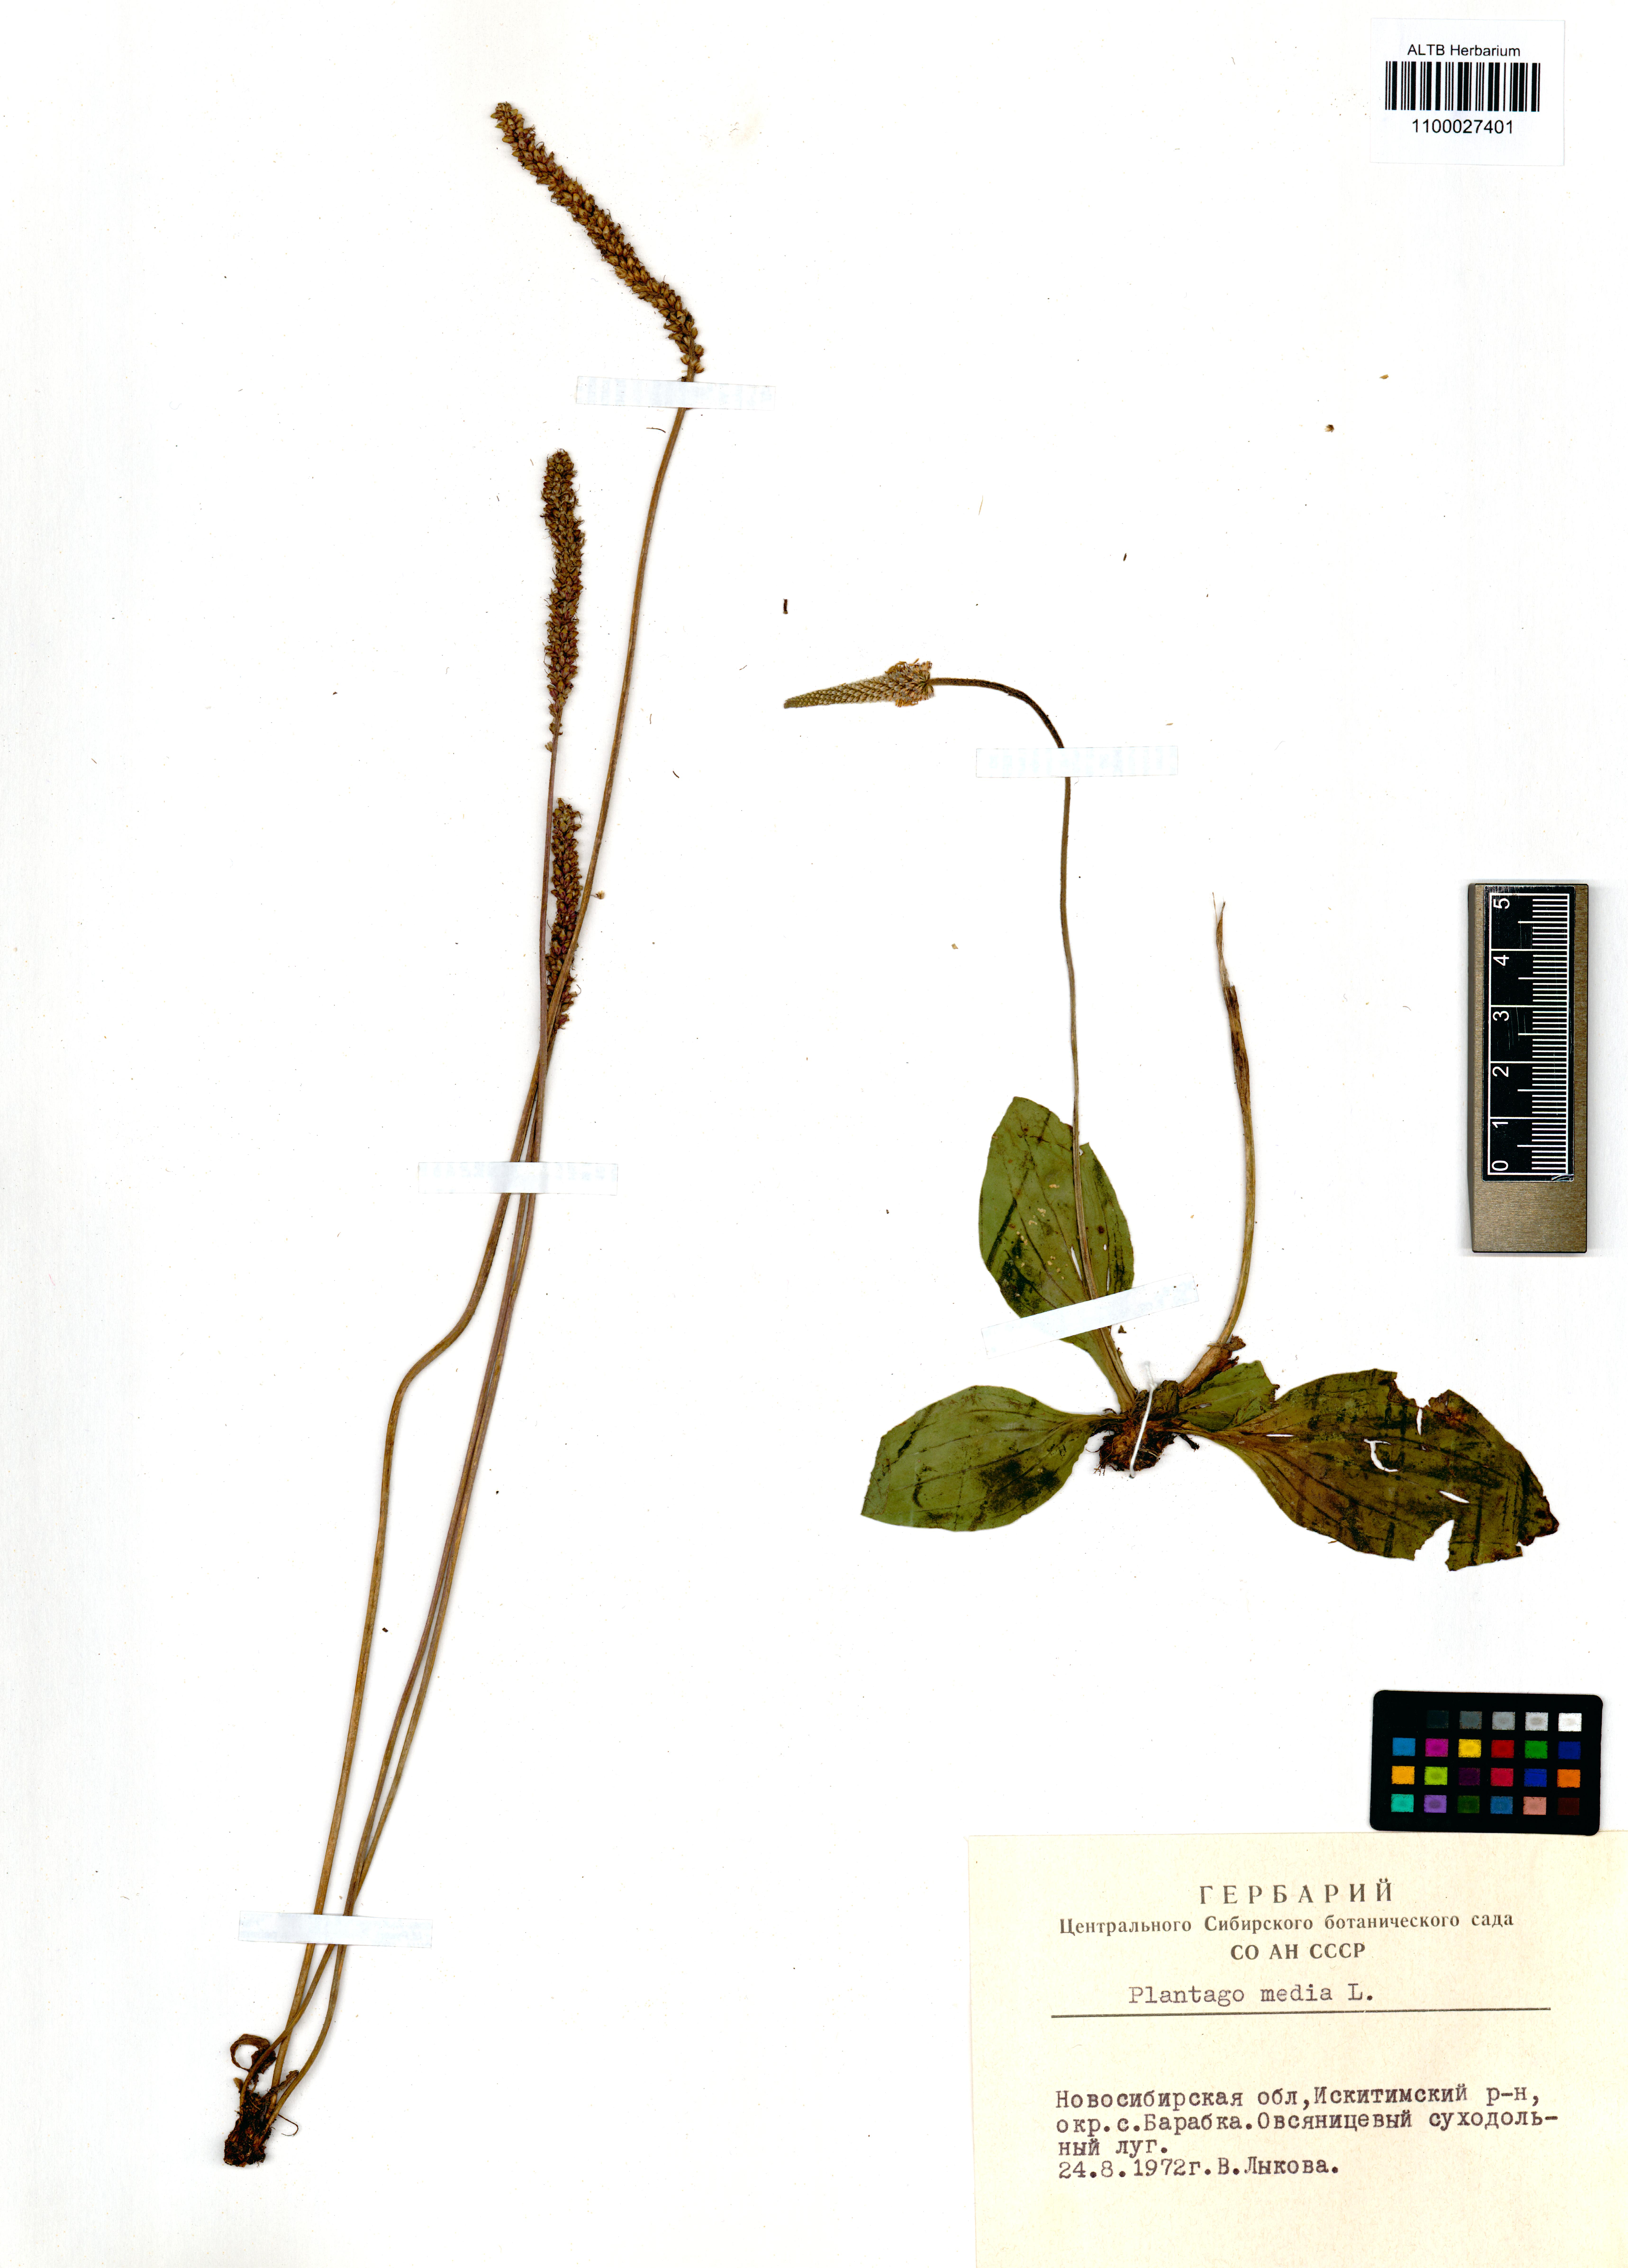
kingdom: Plantae
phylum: Tracheophyta
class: Magnoliopsida
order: Lamiales
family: Plantaginaceae
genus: Plantago
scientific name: Plantago media
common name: Hoary plantain
